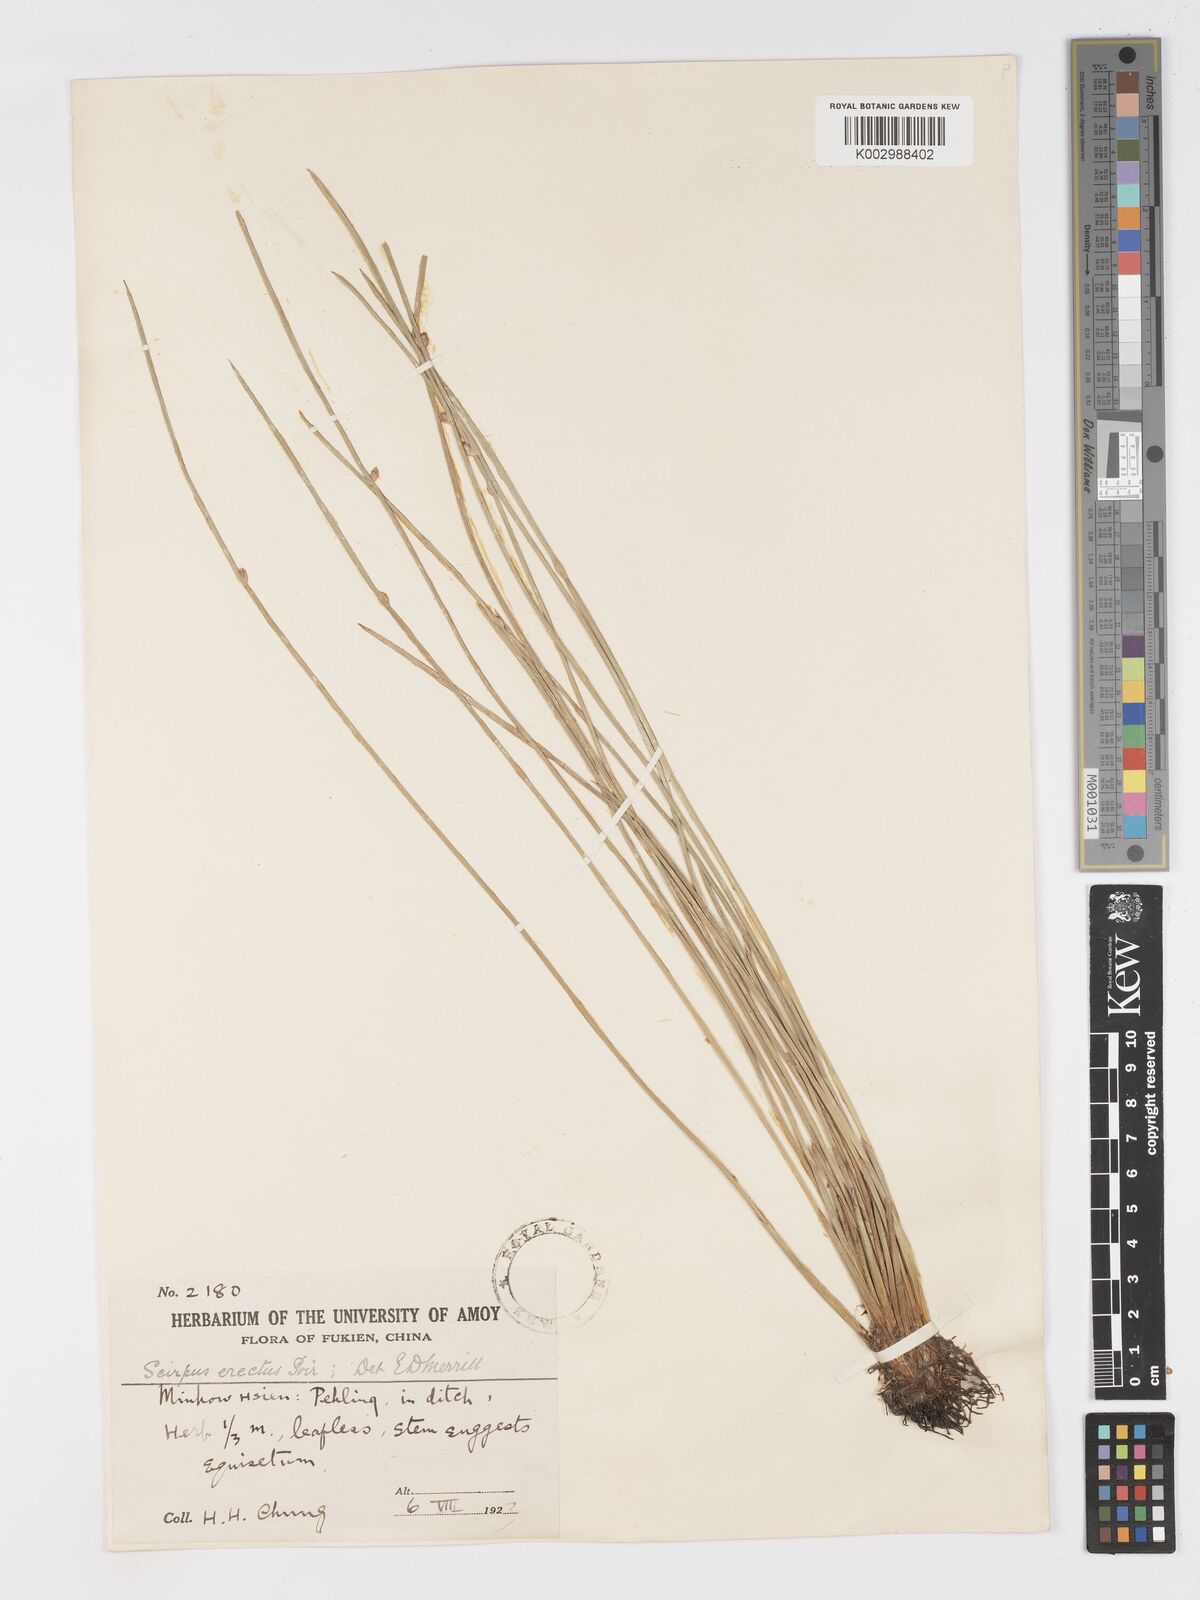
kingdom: Plantae
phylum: Tracheophyta
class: Liliopsida
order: Poales
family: Cyperaceae
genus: Schoenoplectiella
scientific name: Schoenoplectiella erecta
